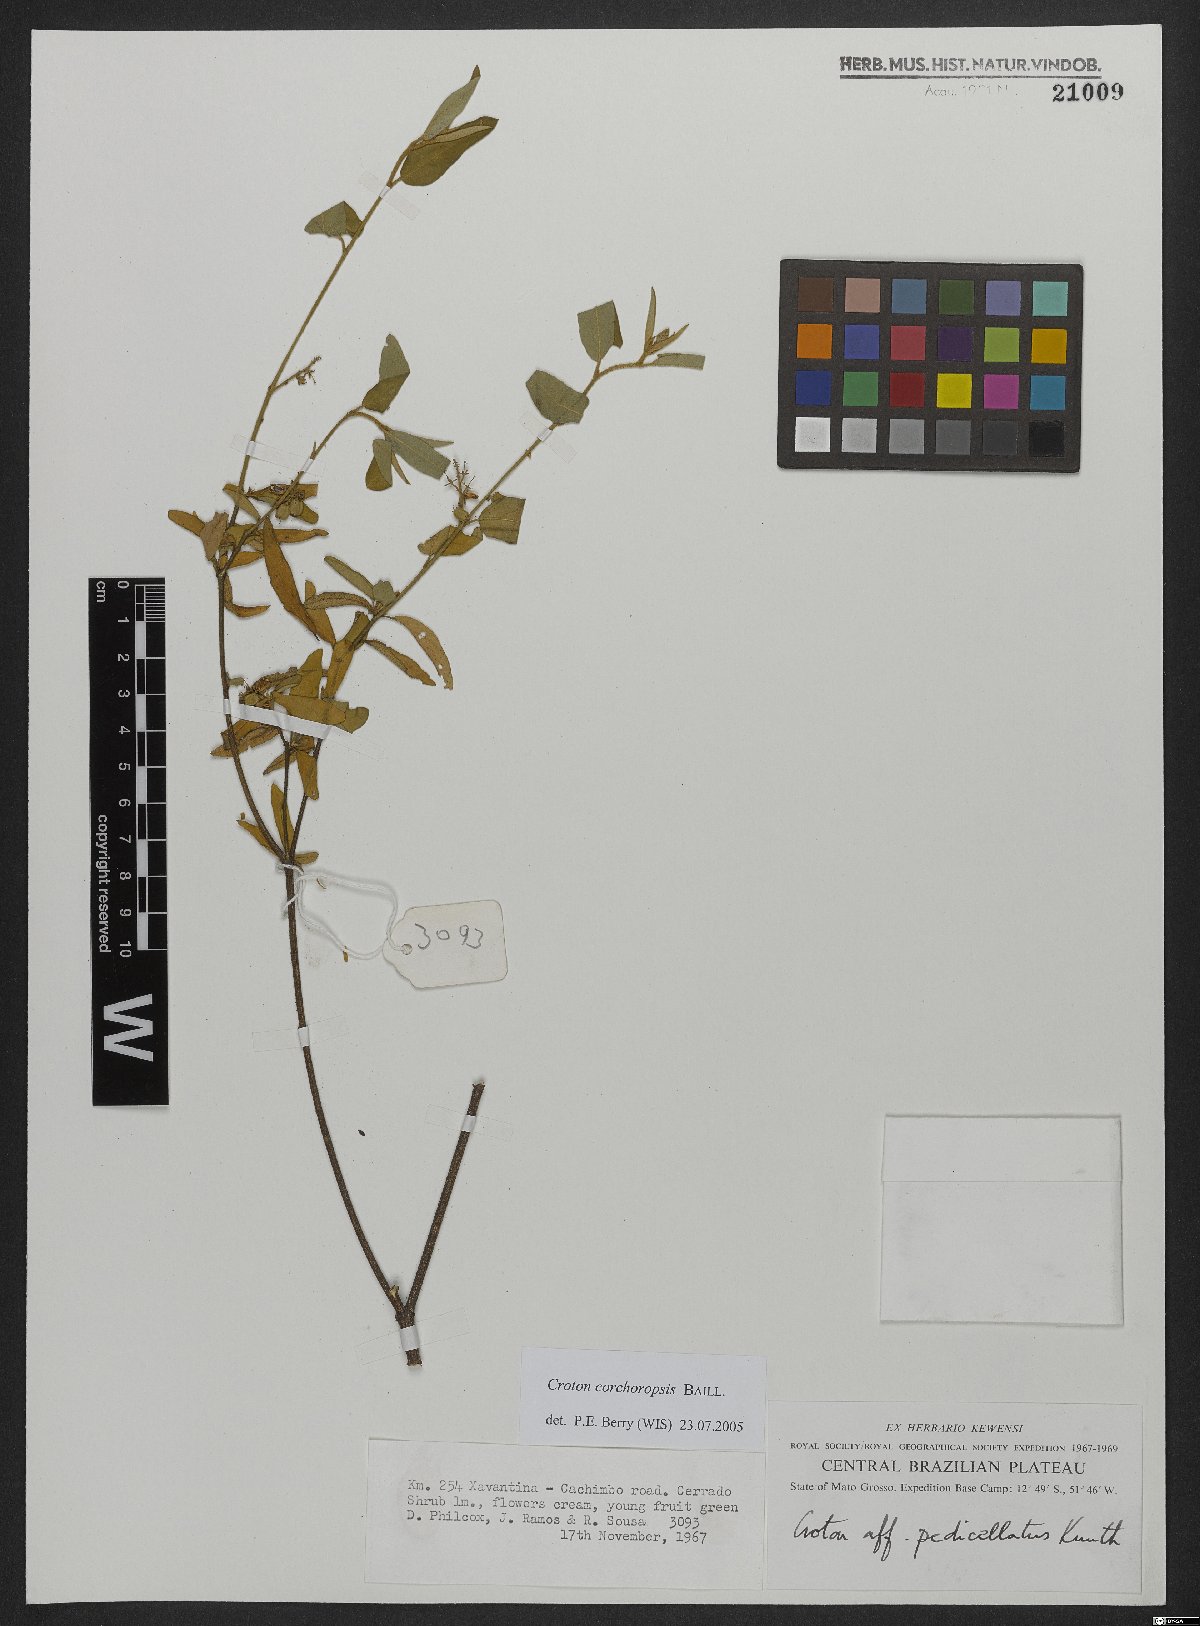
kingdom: Plantae
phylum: Tracheophyta
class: Magnoliopsida
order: Malpighiales
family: Euphorbiaceae
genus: Croton
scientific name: Croton corchoropsis
